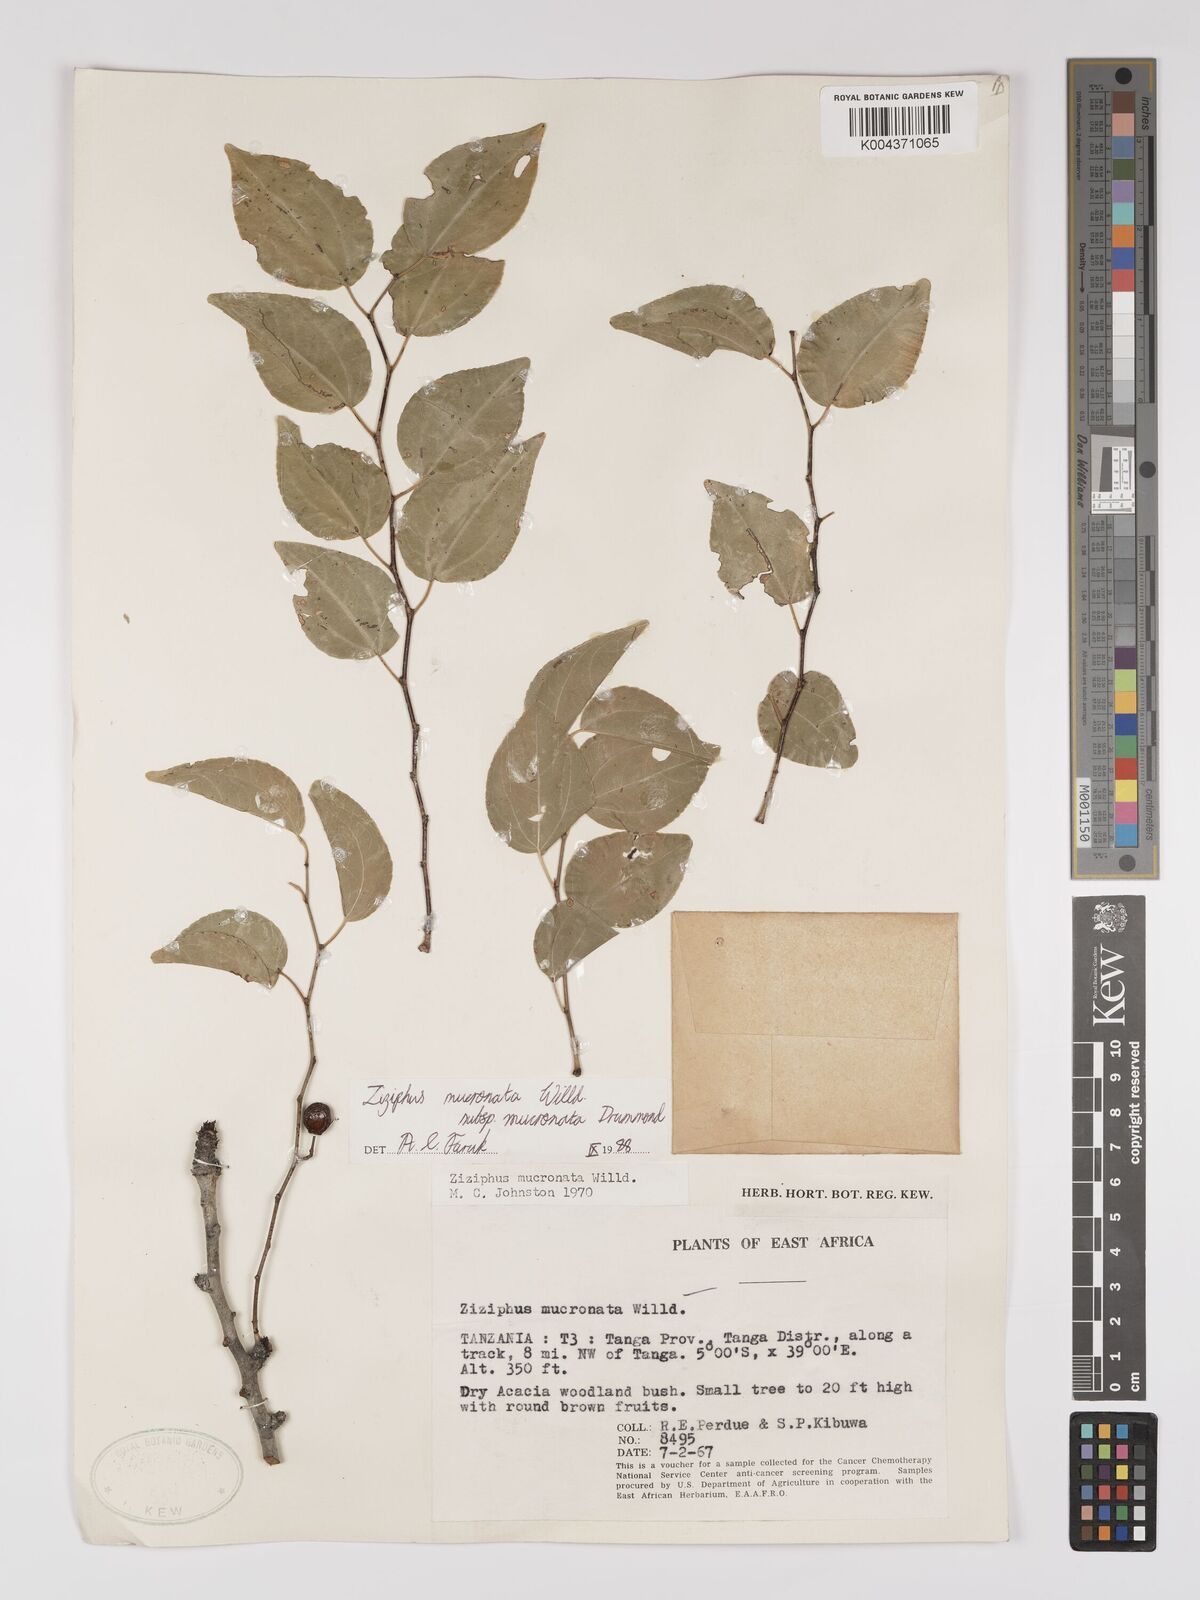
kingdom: Plantae
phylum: Tracheophyta
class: Magnoliopsida
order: Rosales
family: Rhamnaceae
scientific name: Rhamnaceae
